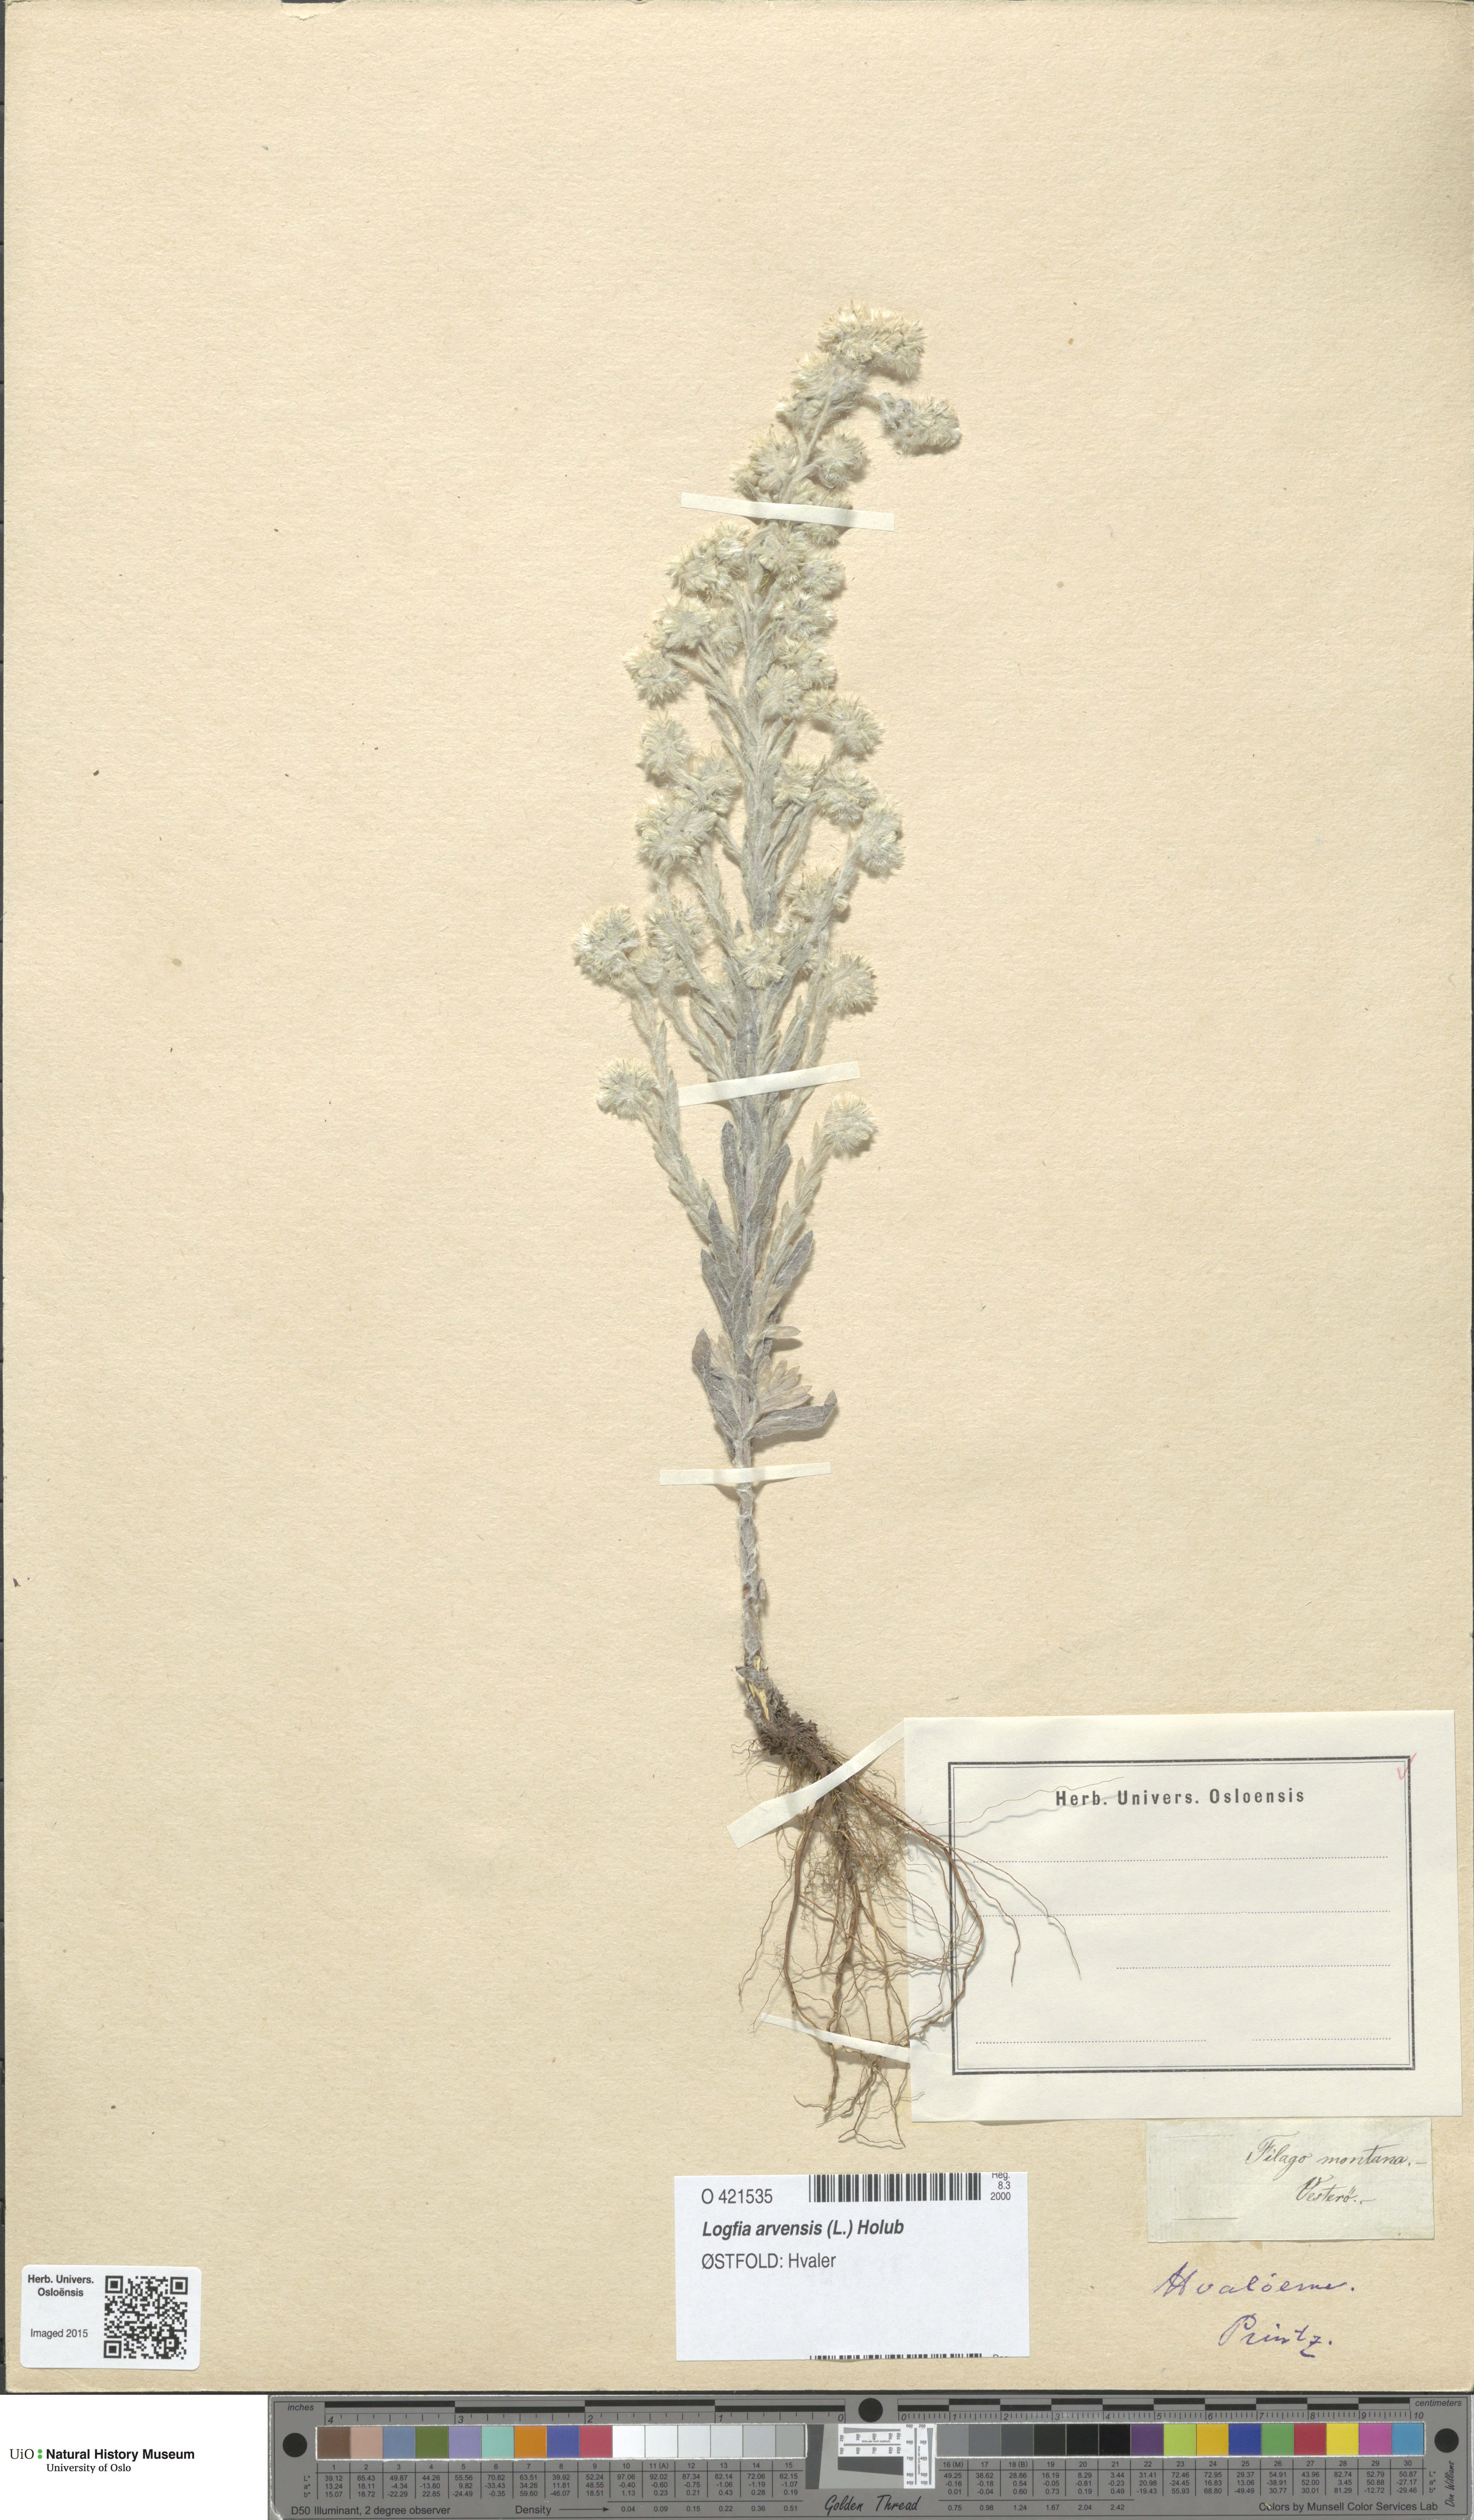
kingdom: Plantae
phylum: Tracheophyta
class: Magnoliopsida
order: Asterales
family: Asteraceae
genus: Filago
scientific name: Filago arvensis
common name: Field cudweed
